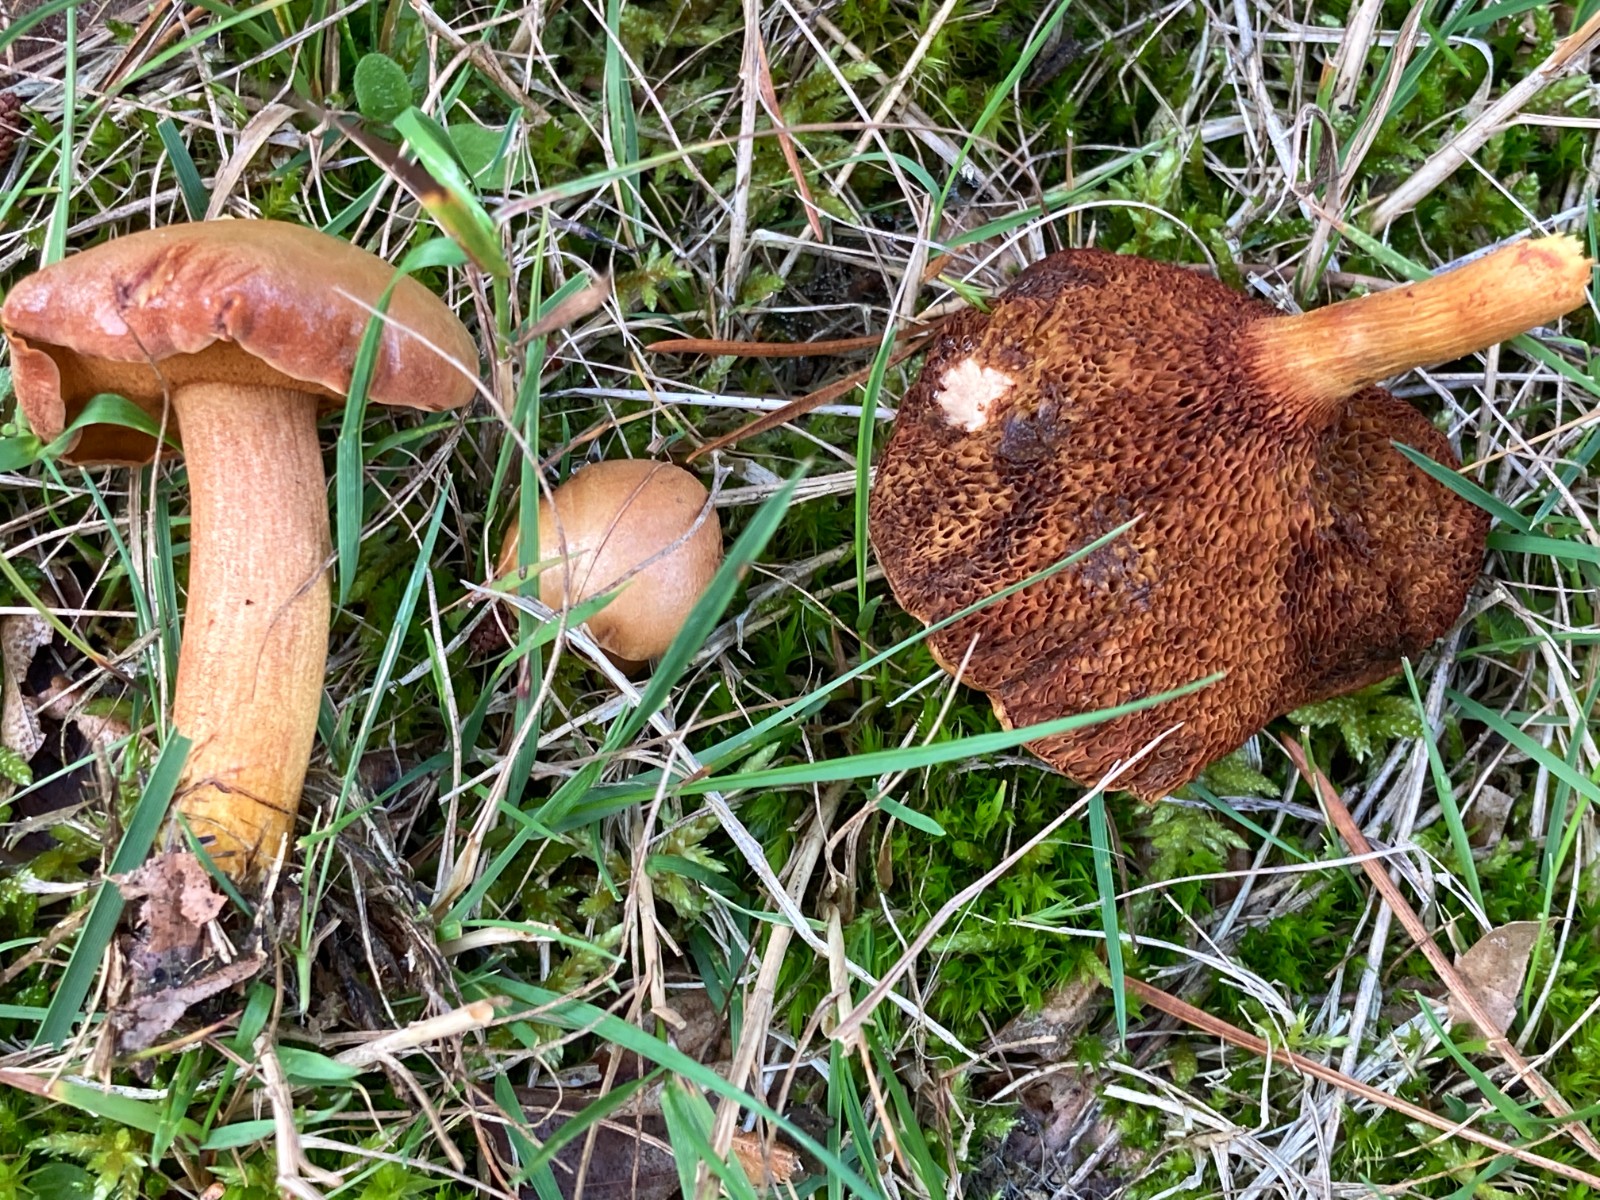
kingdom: Fungi
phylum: Basidiomycota
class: Agaricomycetes
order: Boletales
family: Boletaceae
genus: Chalciporus
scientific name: Chalciporus piperatus
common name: peberrørhat
